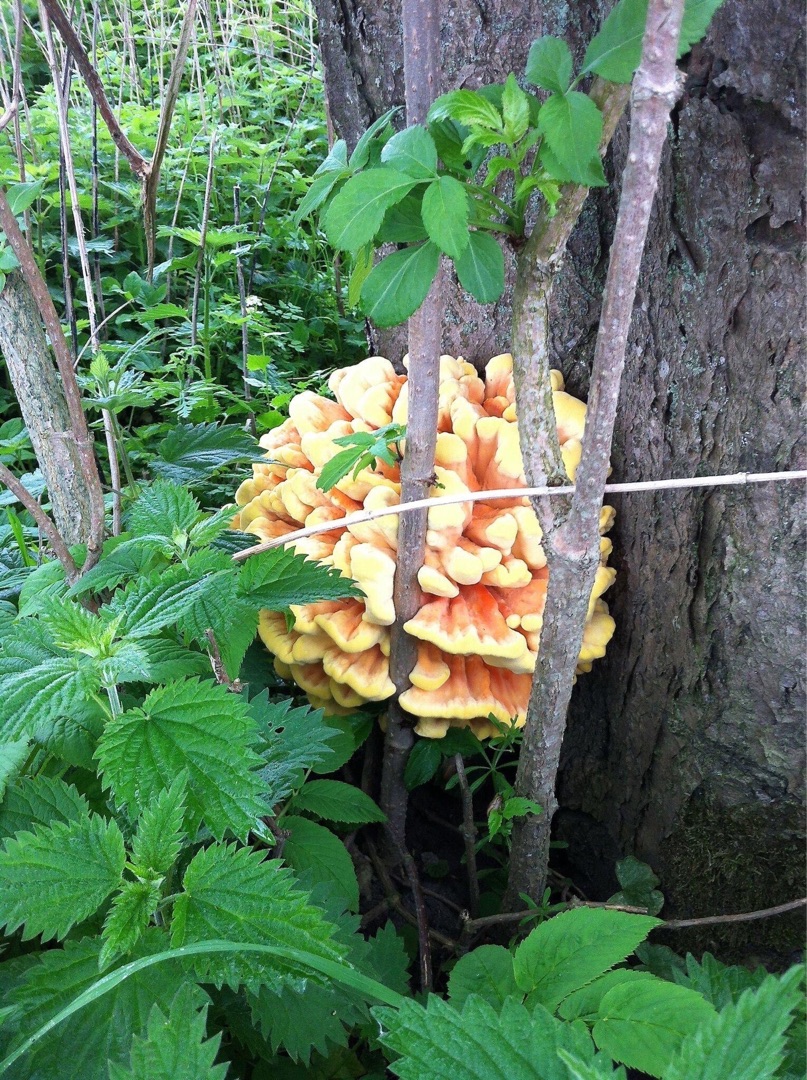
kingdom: Fungi
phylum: Basidiomycota
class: Agaricomycetes
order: Polyporales
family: Laetiporaceae
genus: Laetiporus
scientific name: Laetiporus sulphureus
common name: Svovlporesvamp
